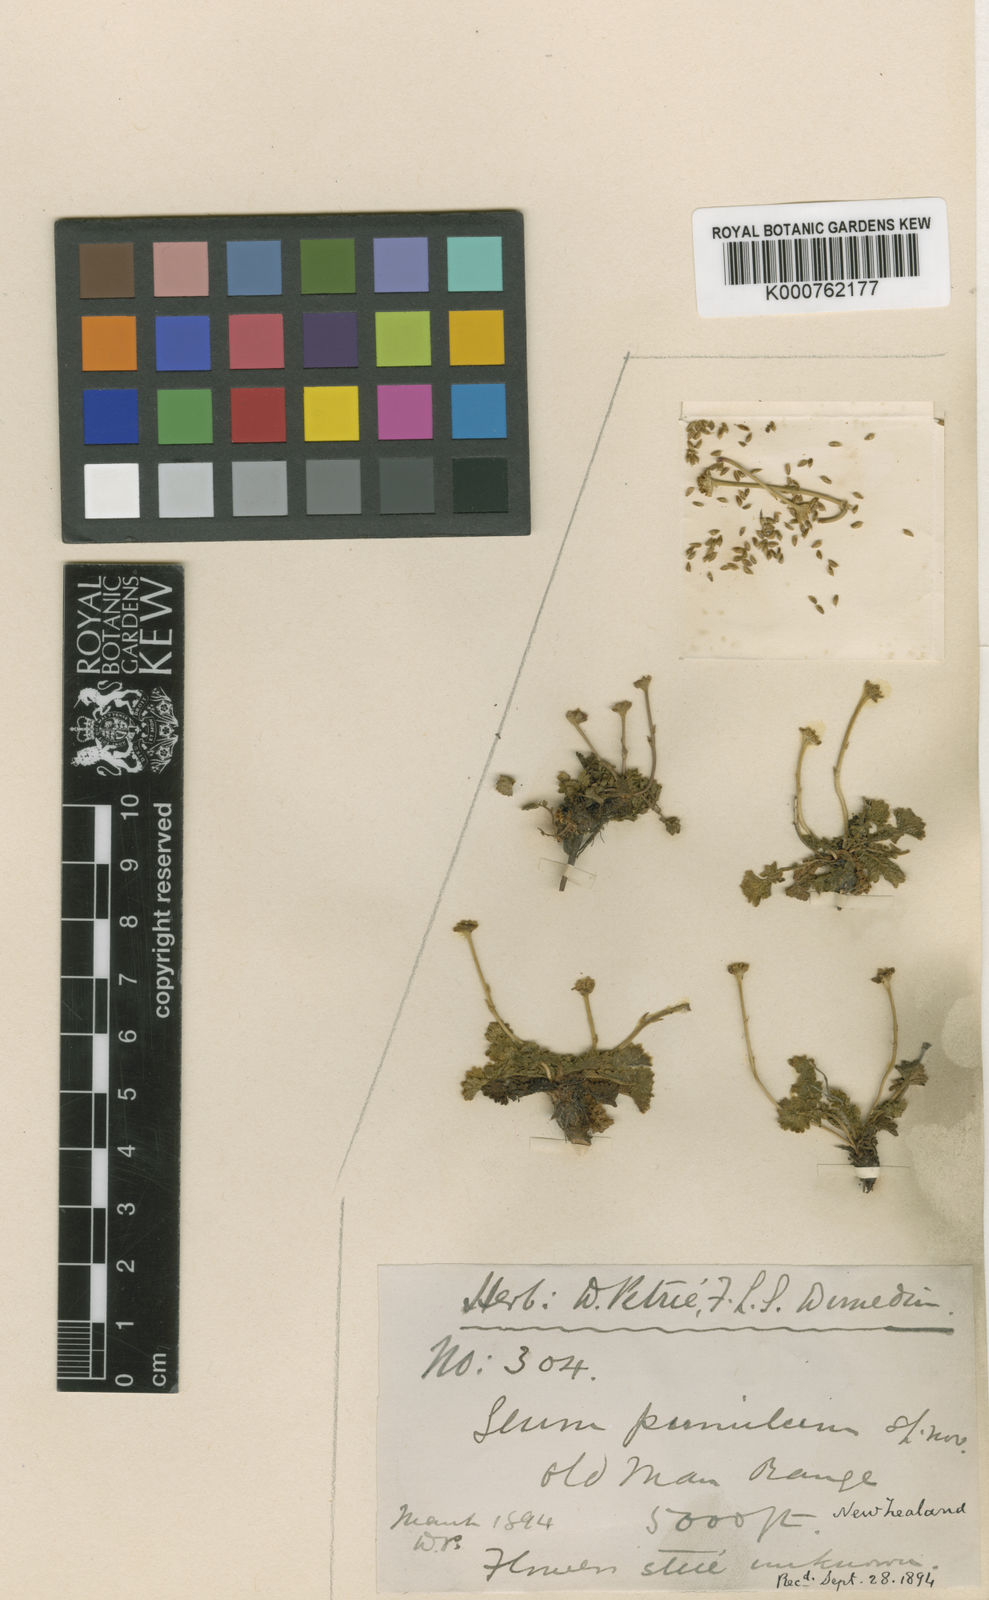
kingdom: Plantae
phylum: Tracheophyta
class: Magnoliopsida
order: Rosales
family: Rosaceae
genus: Geum
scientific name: Geum
